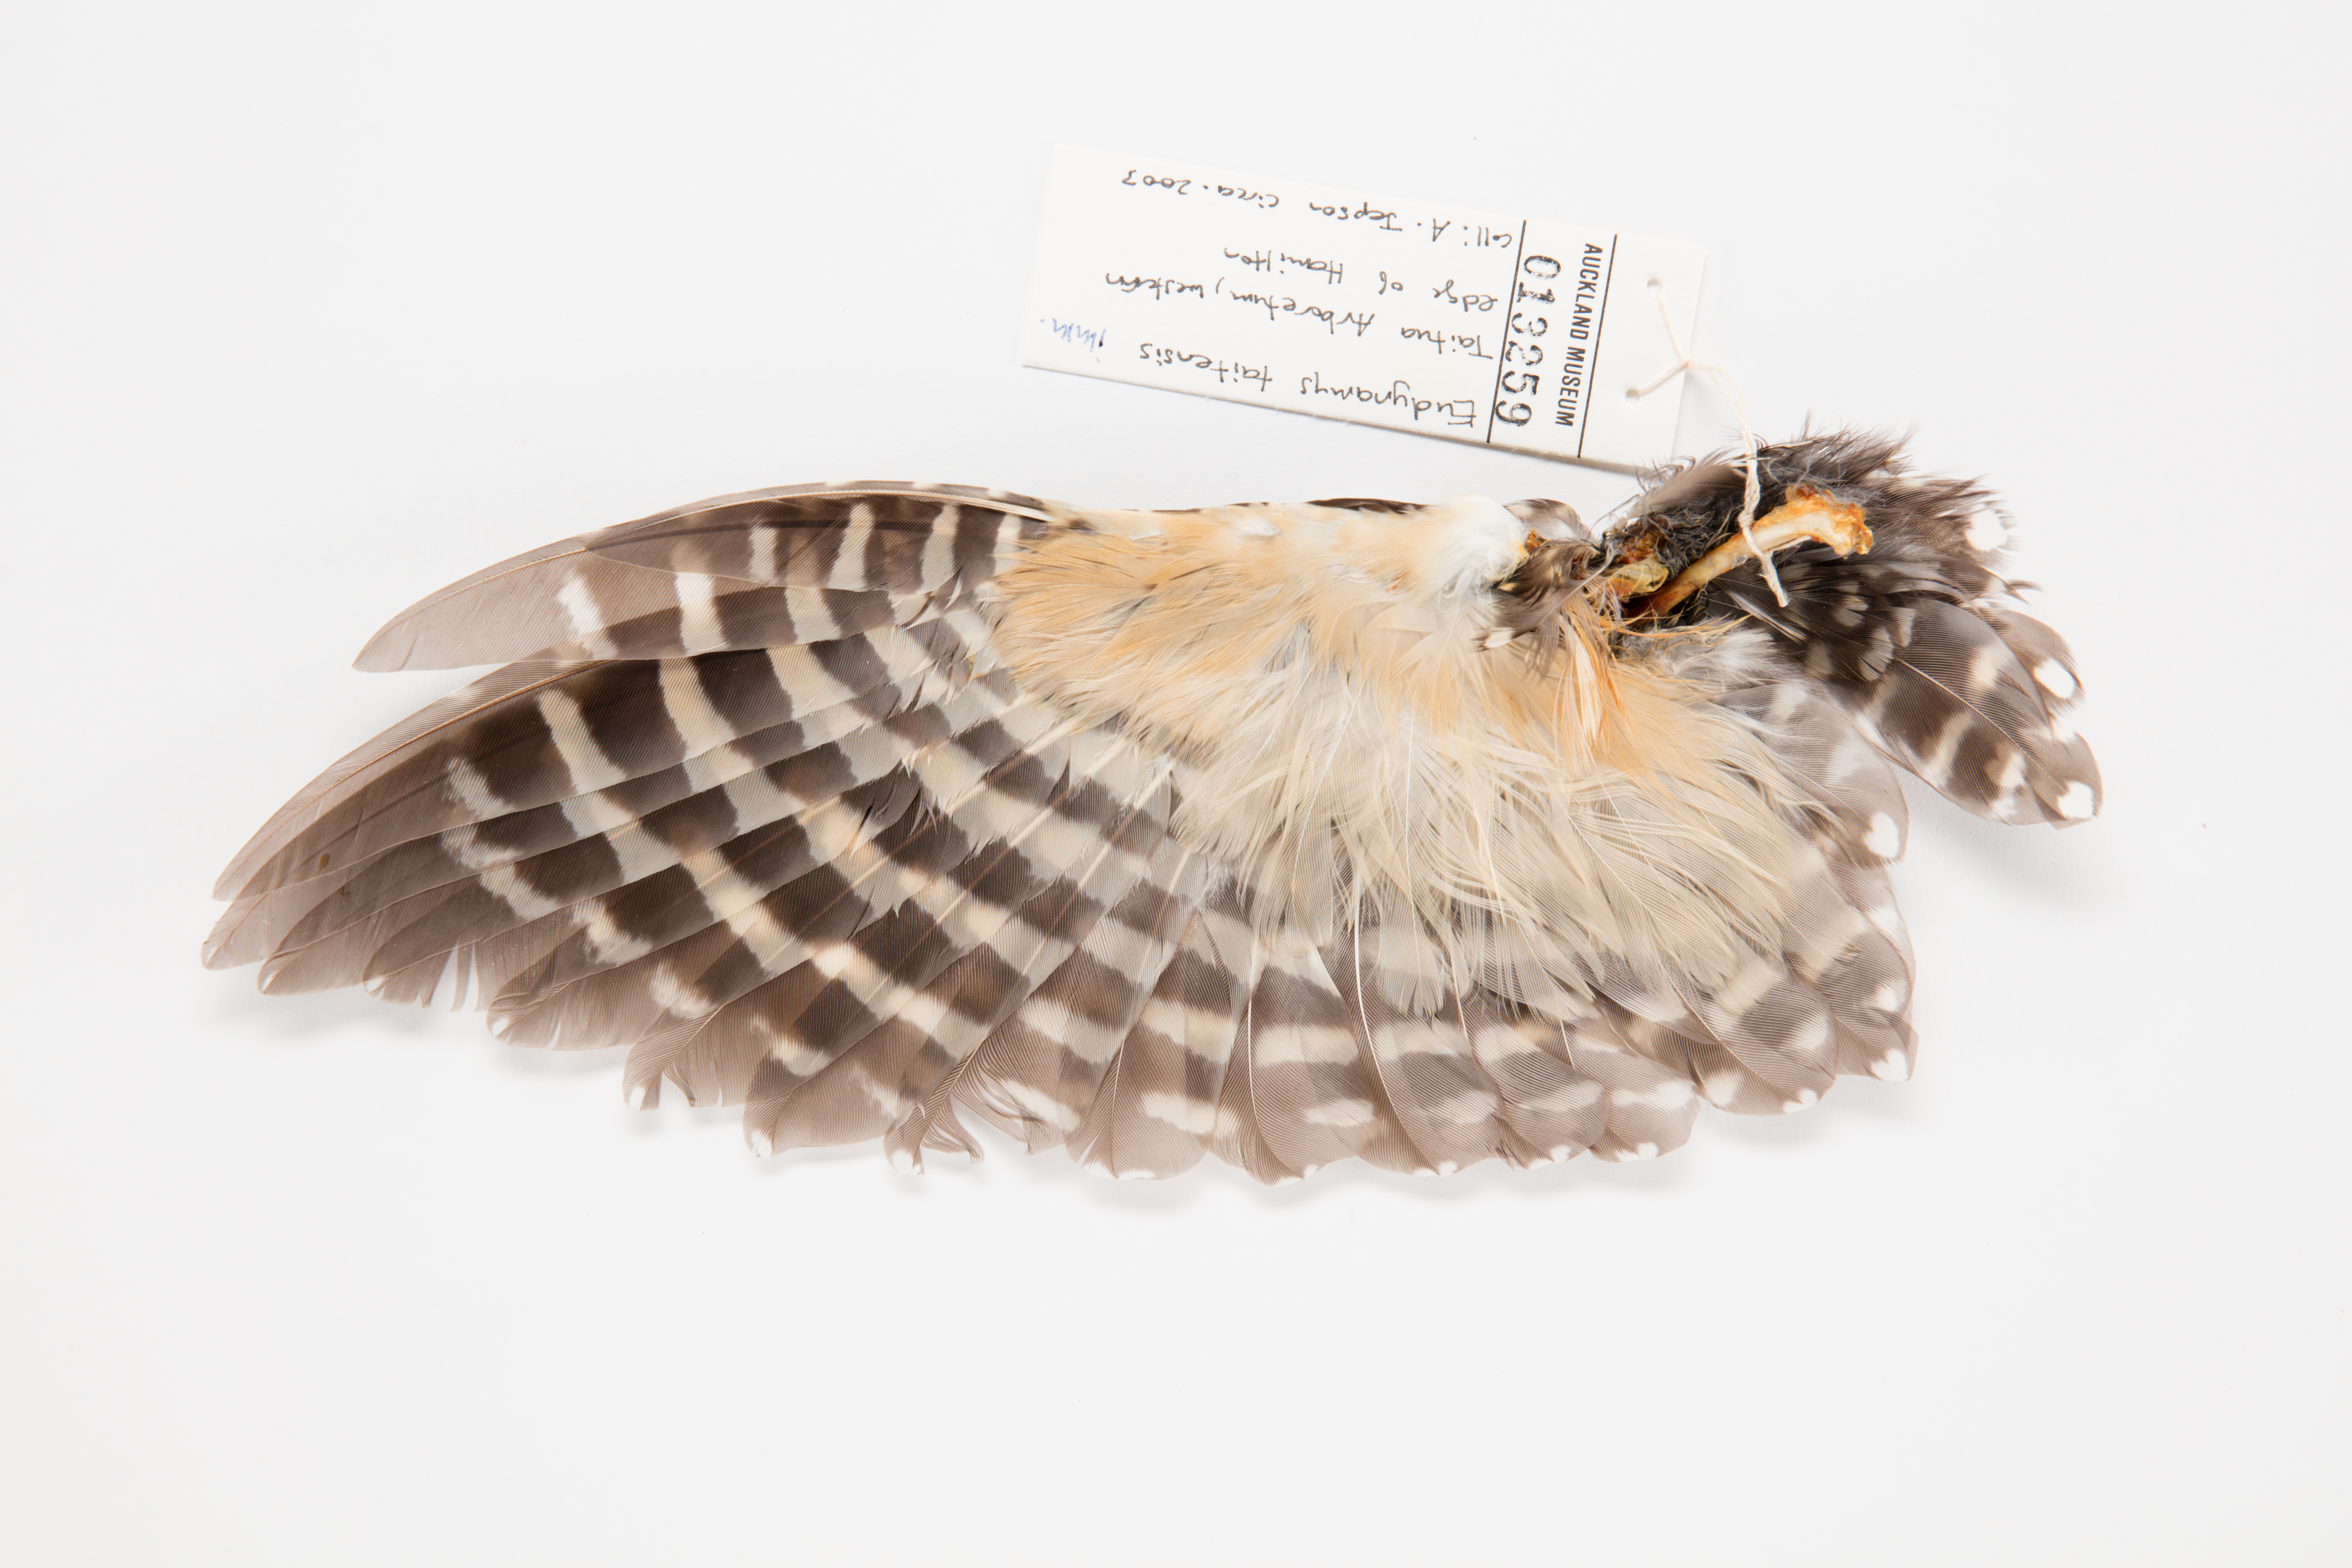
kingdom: Animalia
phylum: Chordata
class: Aves
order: Cuculiformes
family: Cuculidae
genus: Urodynamis
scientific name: Urodynamis taitensis
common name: Long-tailed koel
